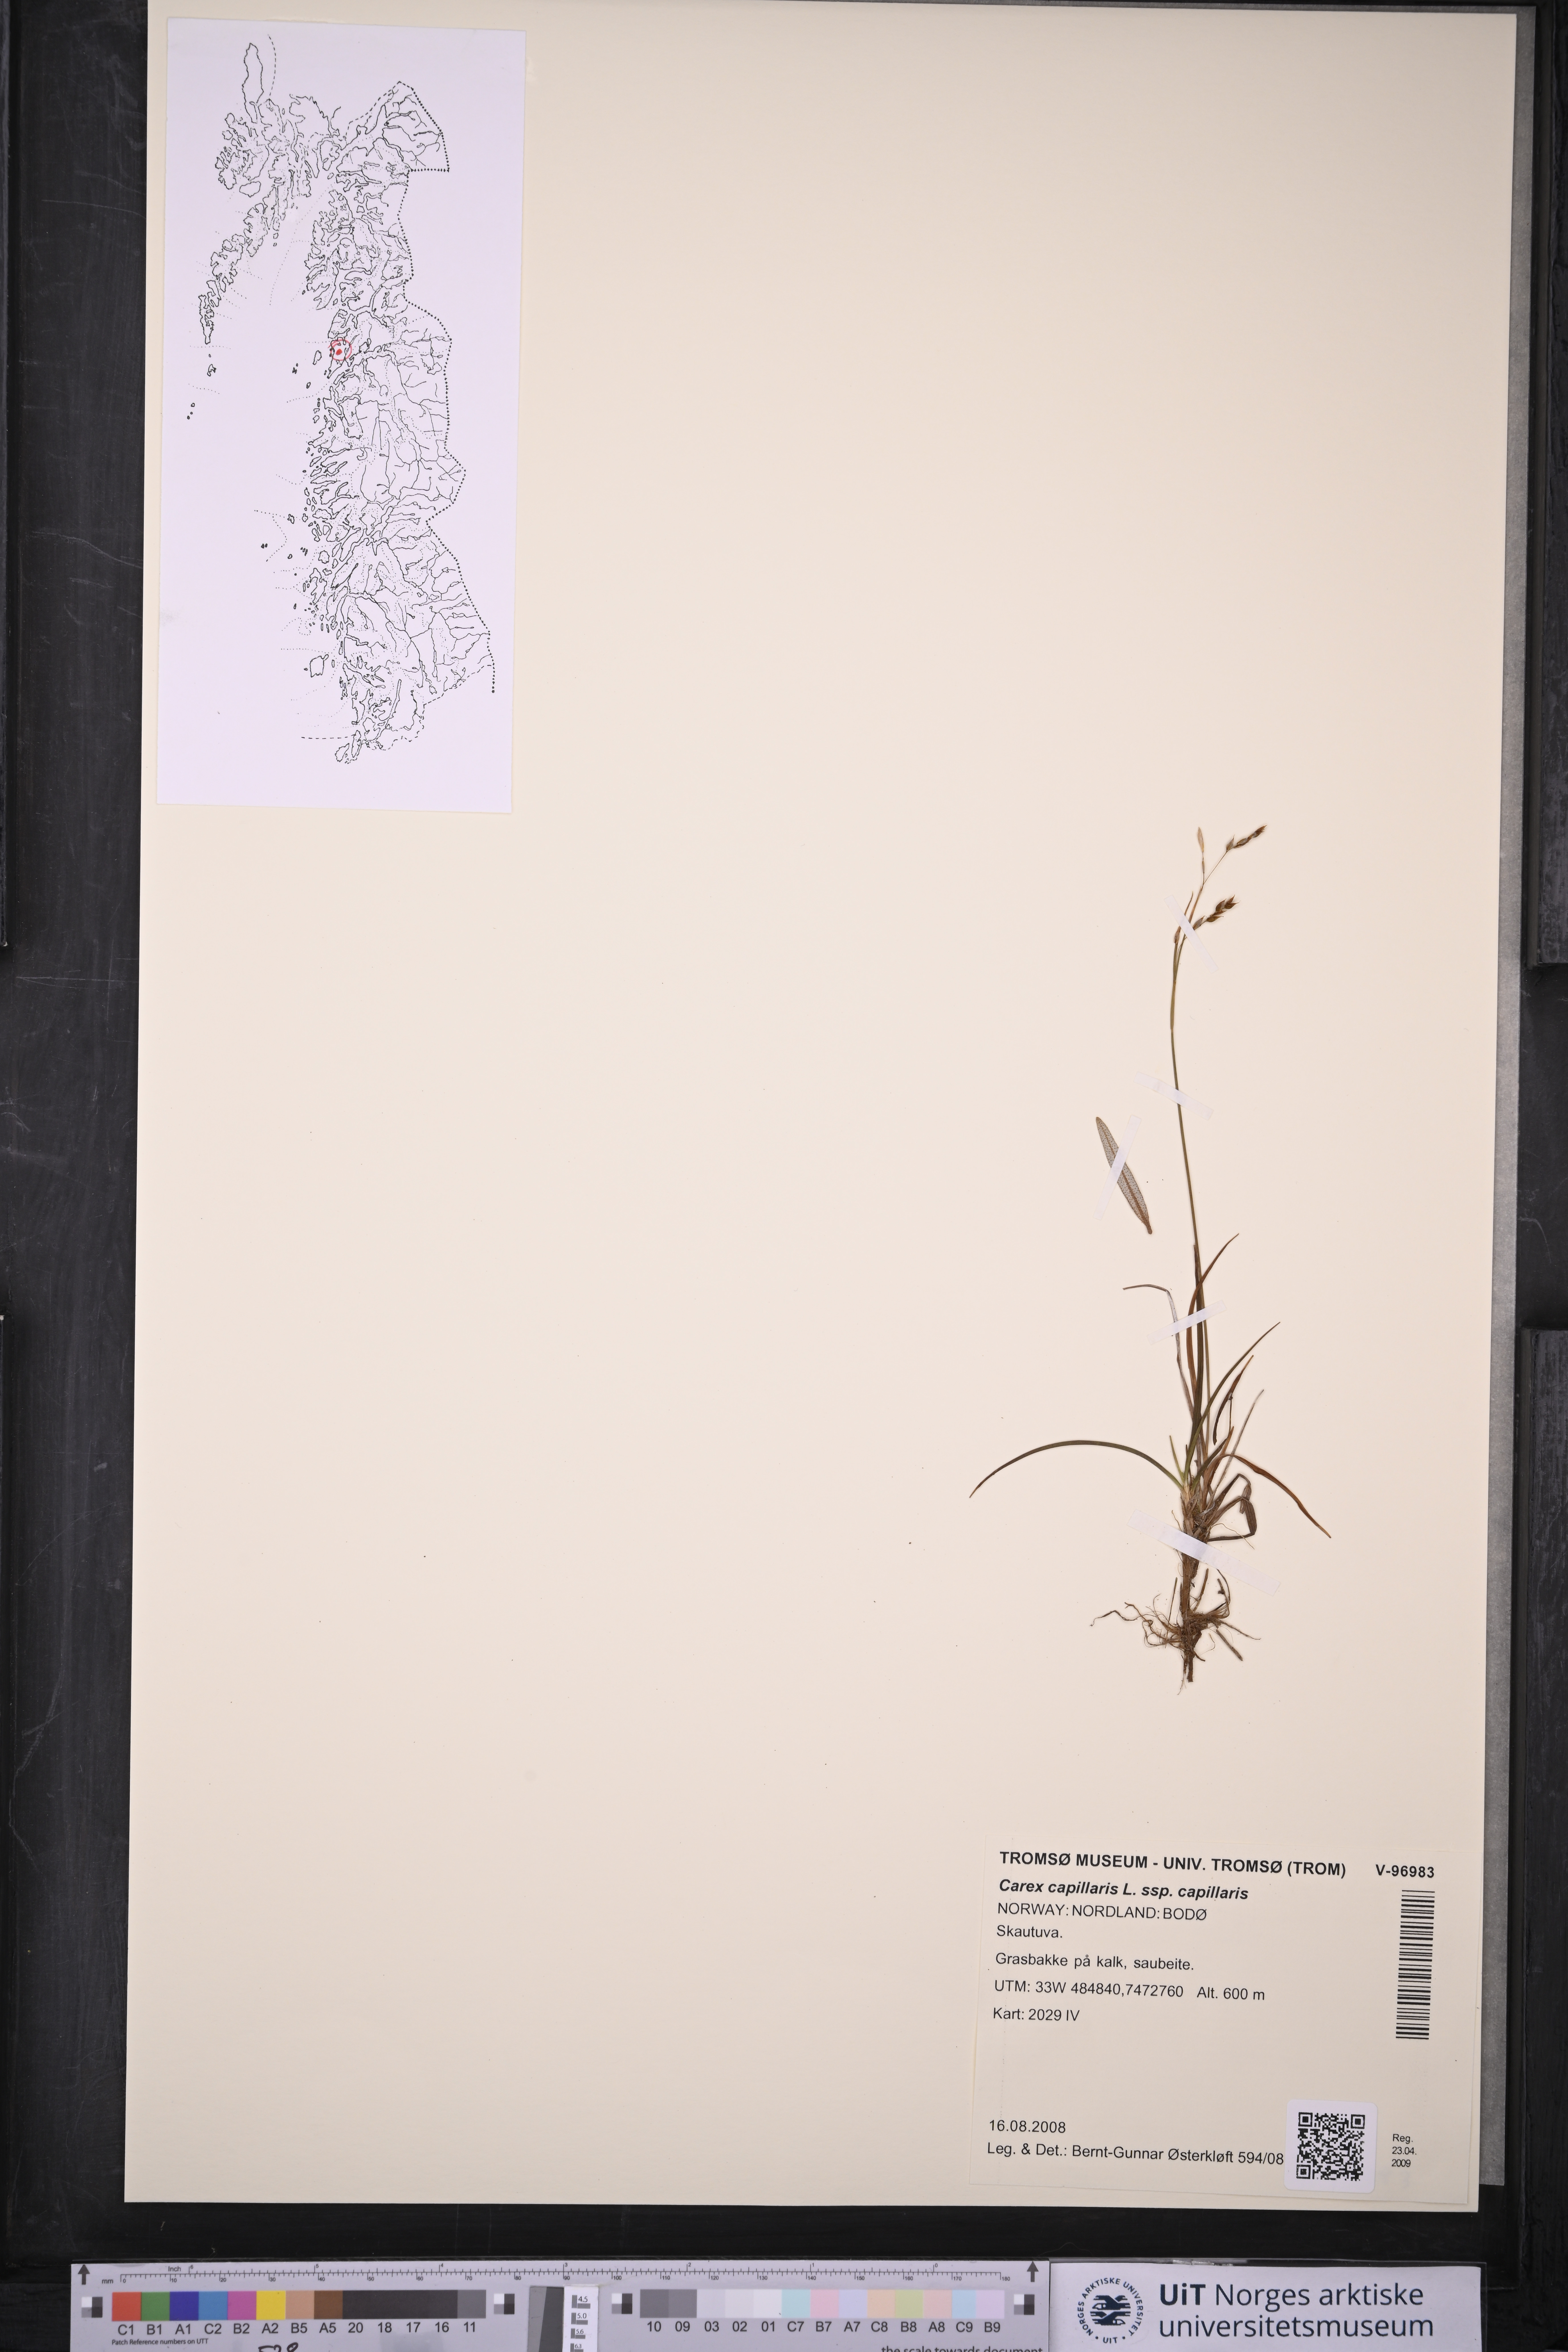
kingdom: Plantae
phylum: Tracheophyta
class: Liliopsida
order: Poales
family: Cyperaceae
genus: Carex
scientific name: Carex capillaris
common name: Hair sedge
